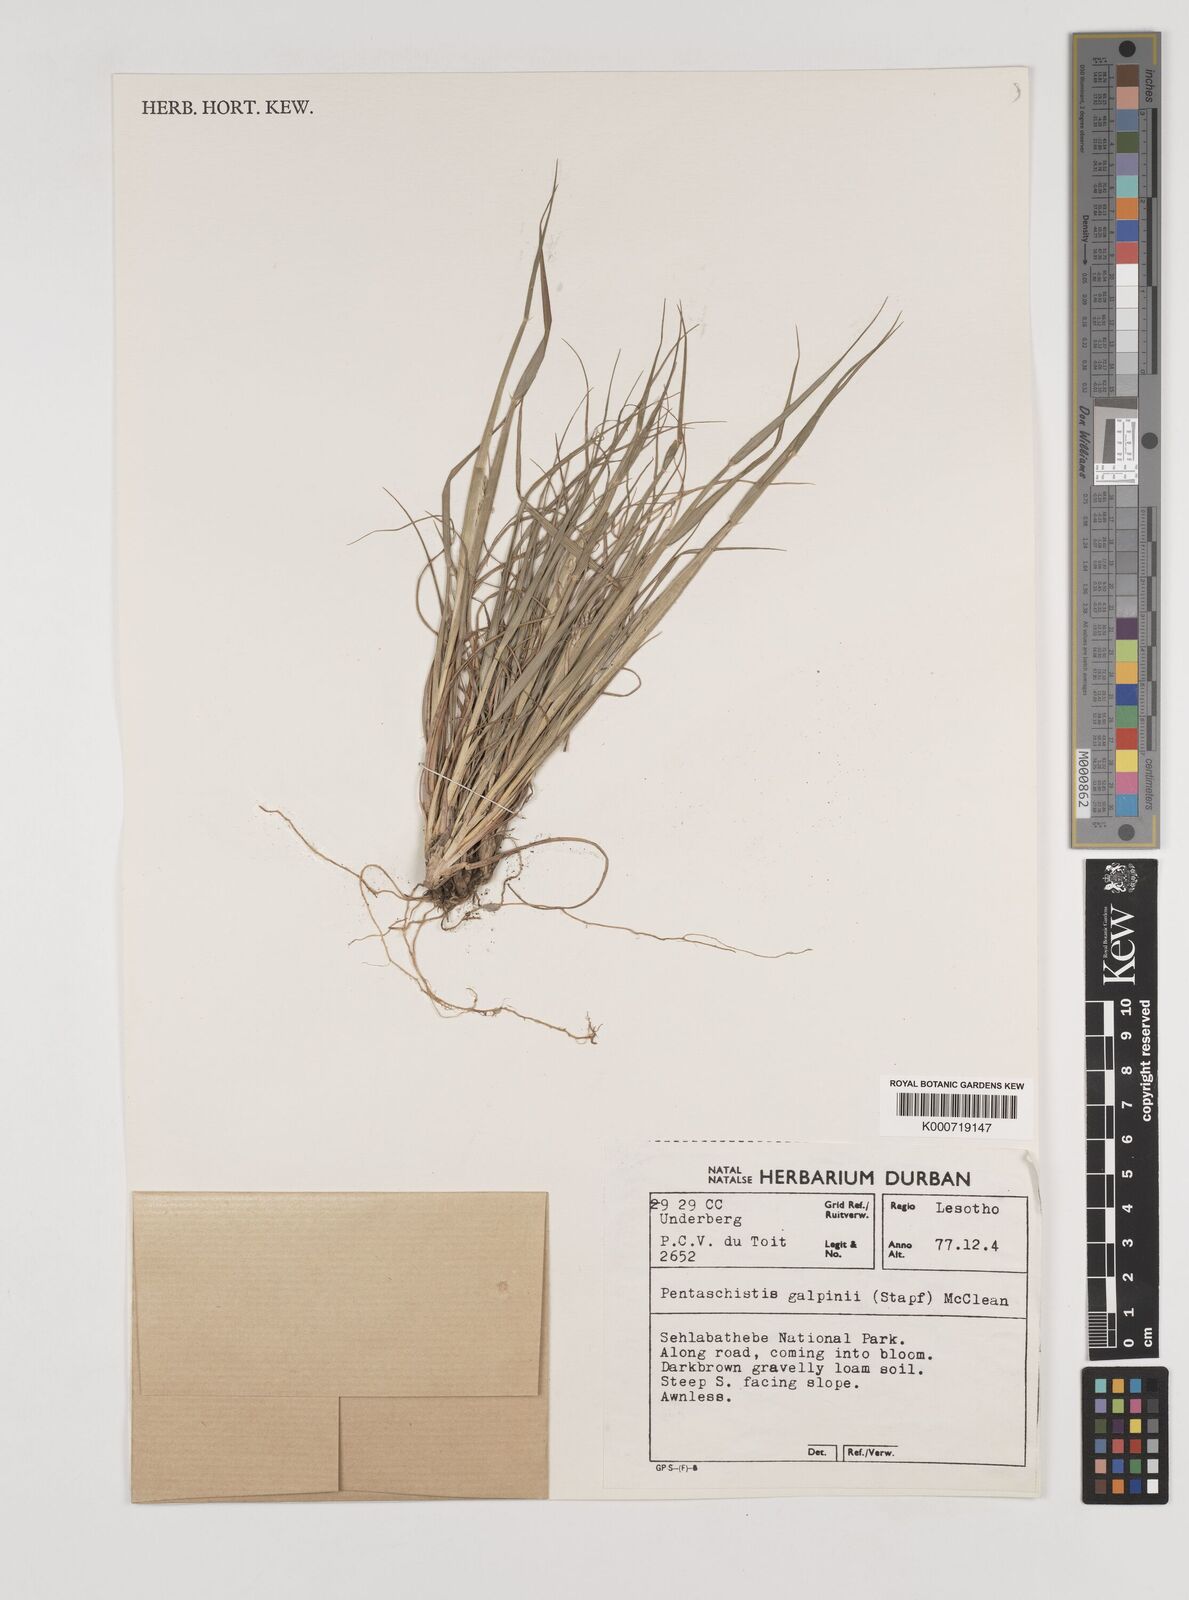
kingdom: Plantae
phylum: Tracheophyta
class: Liliopsida
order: Poales
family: Poaceae
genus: Pentameris
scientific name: Pentameris galpinii
